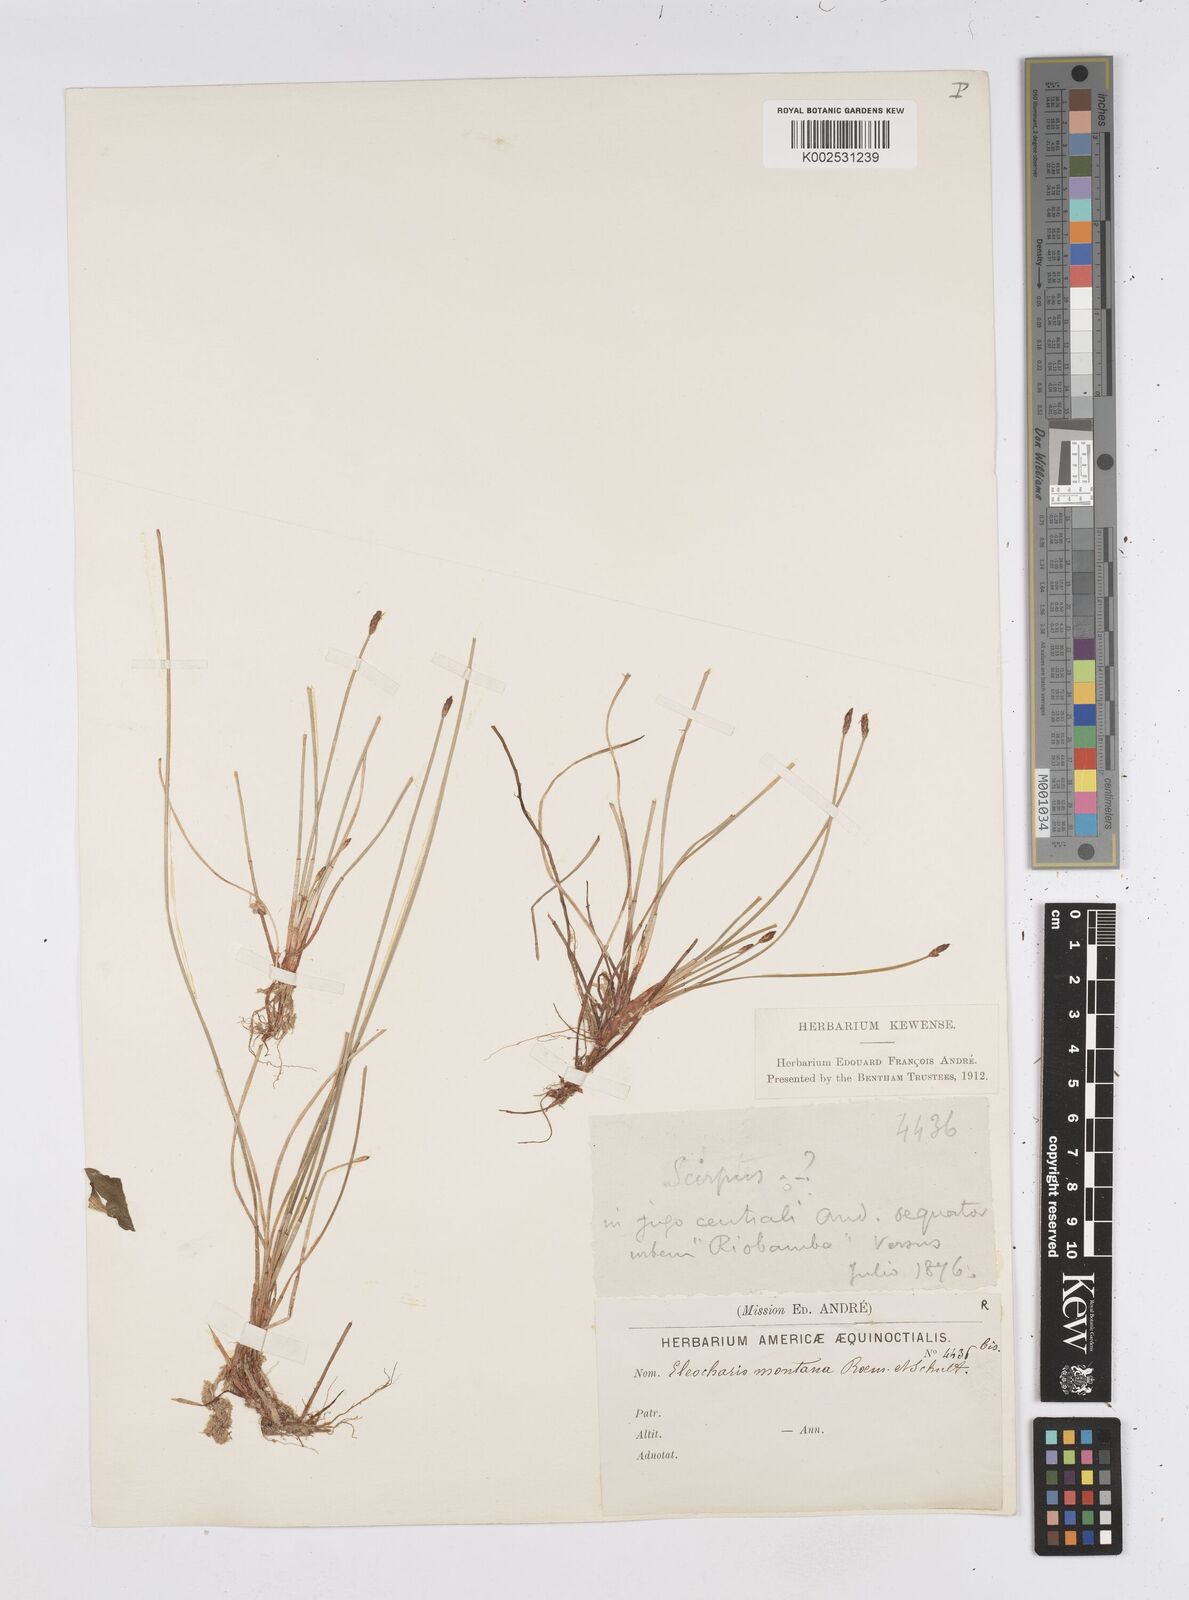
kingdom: Plantae
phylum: Tracheophyta
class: Liliopsida
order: Poales
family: Cyperaceae
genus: Eleocharis
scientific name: Eleocharis montana
